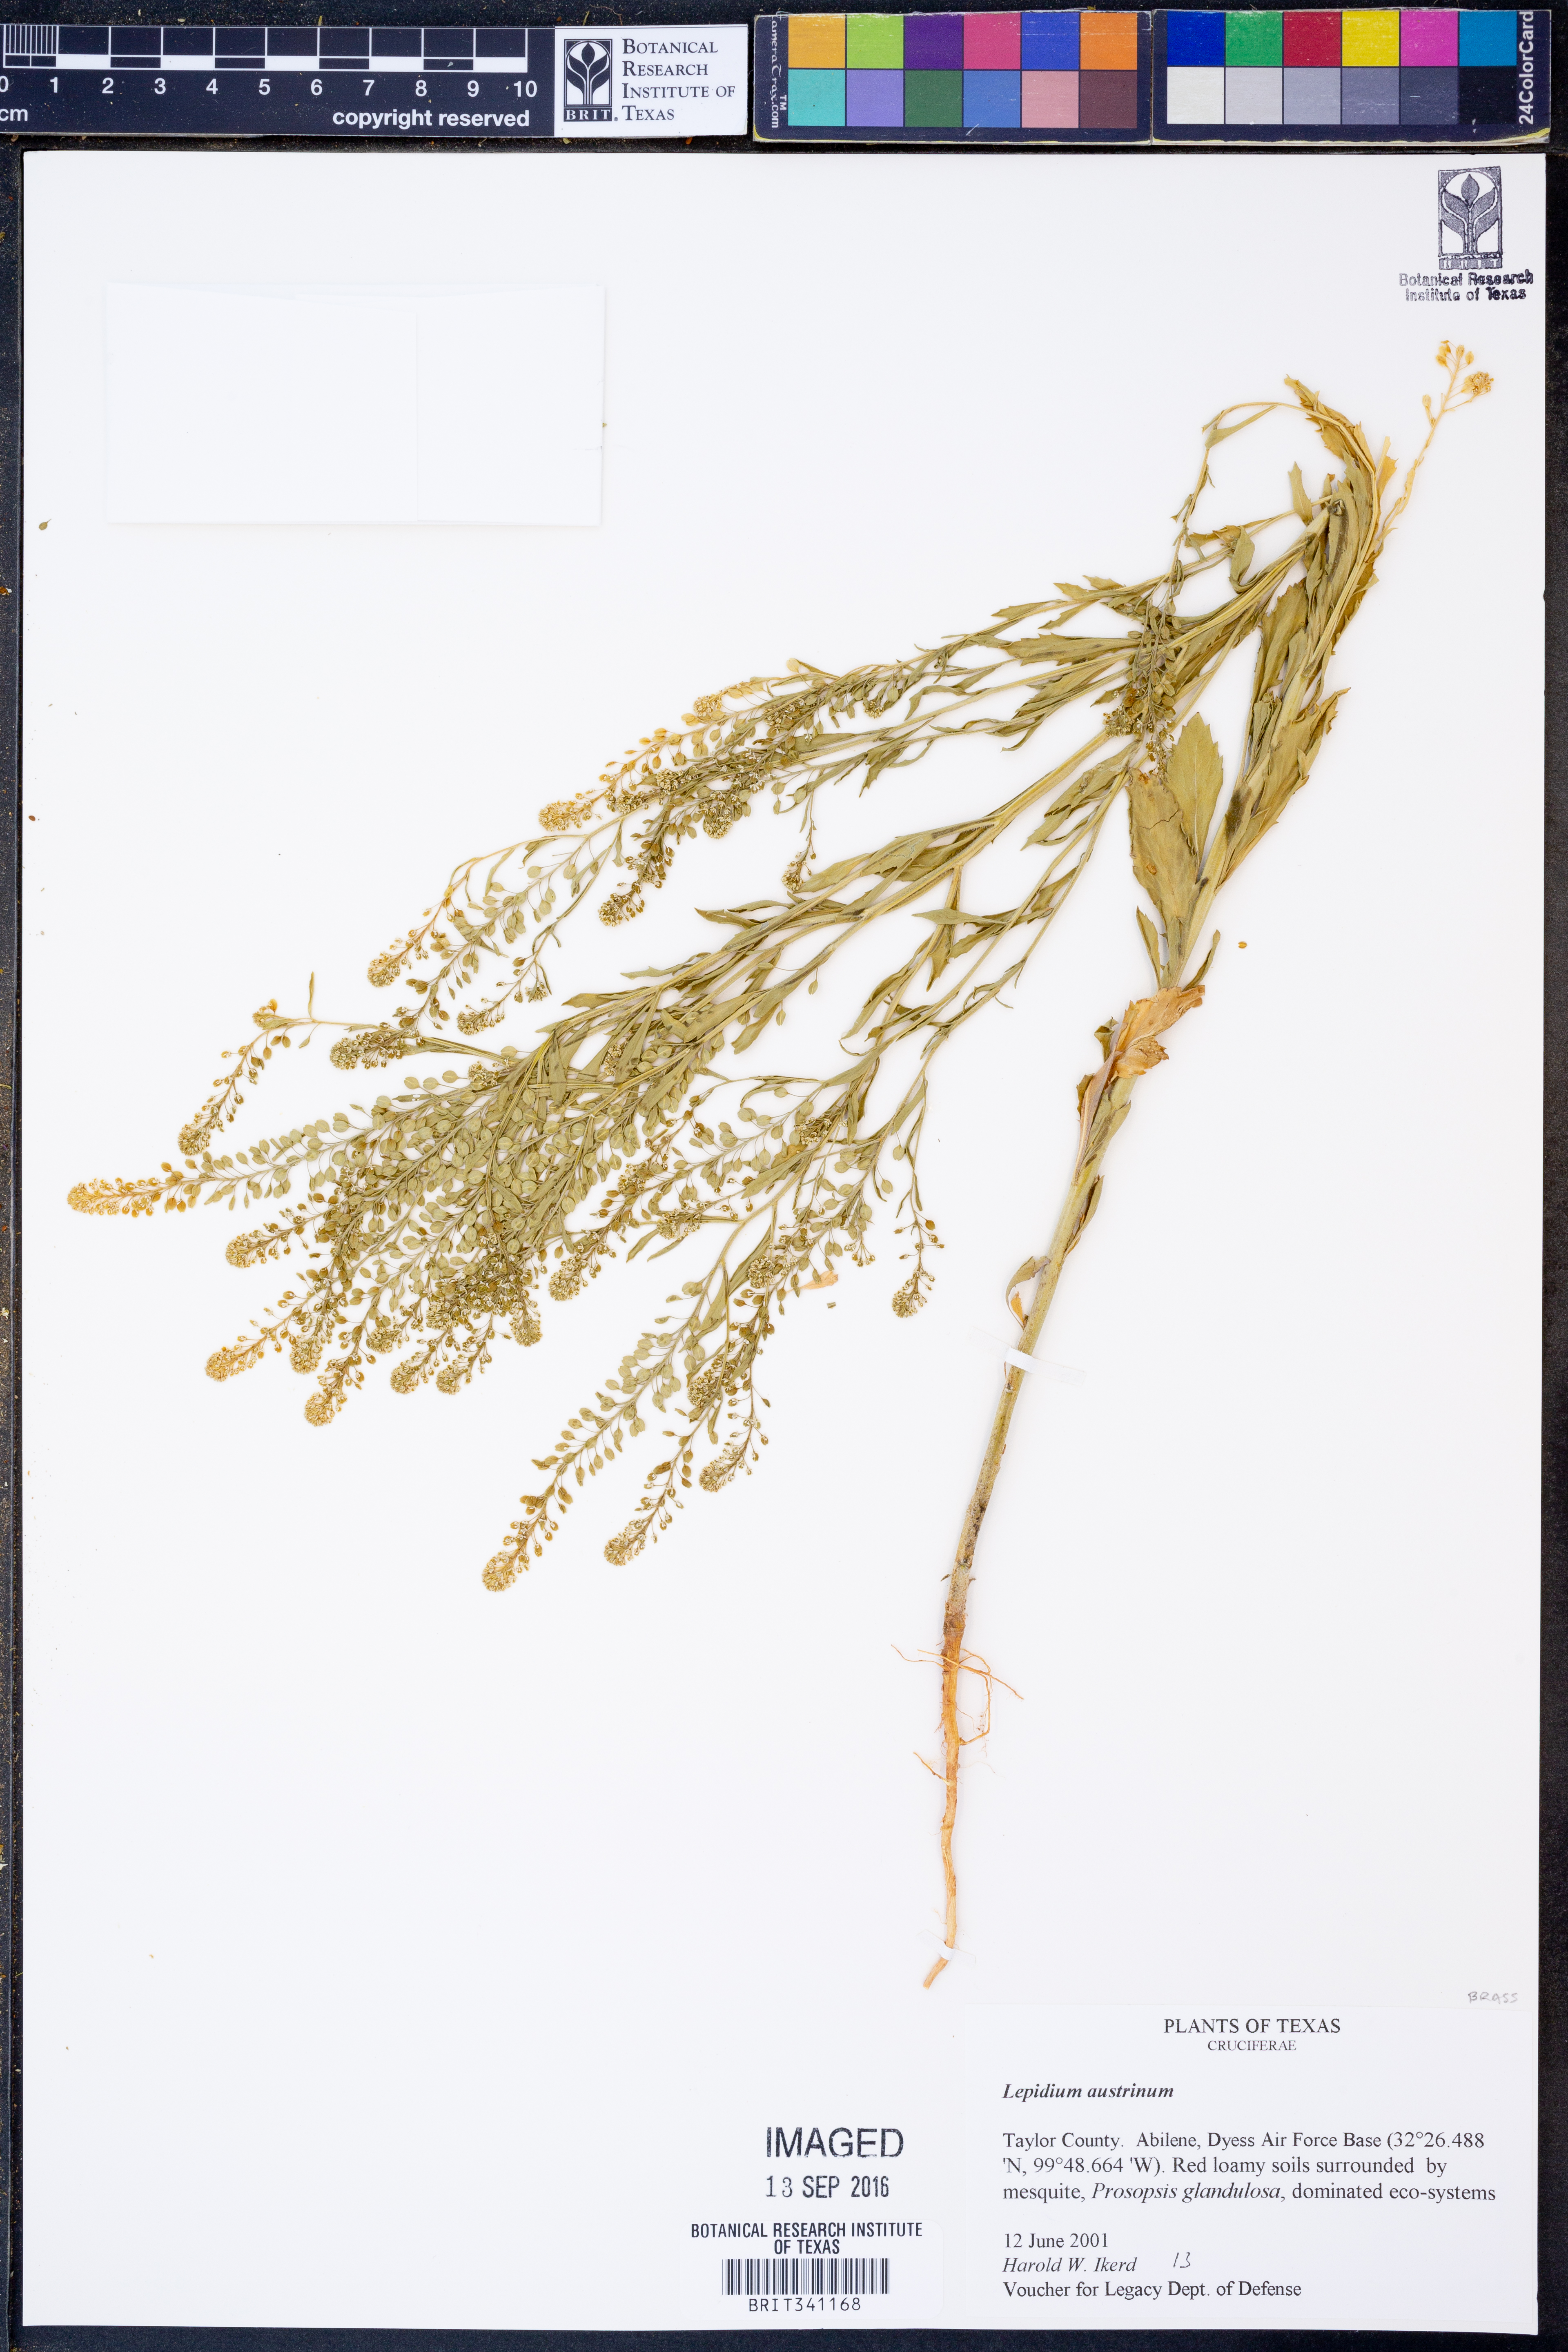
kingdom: Plantae
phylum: Tracheophyta
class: Magnoliopsida
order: Brassicales
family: Brassicaceae
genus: Lepidium
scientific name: Lepidium austrinum
